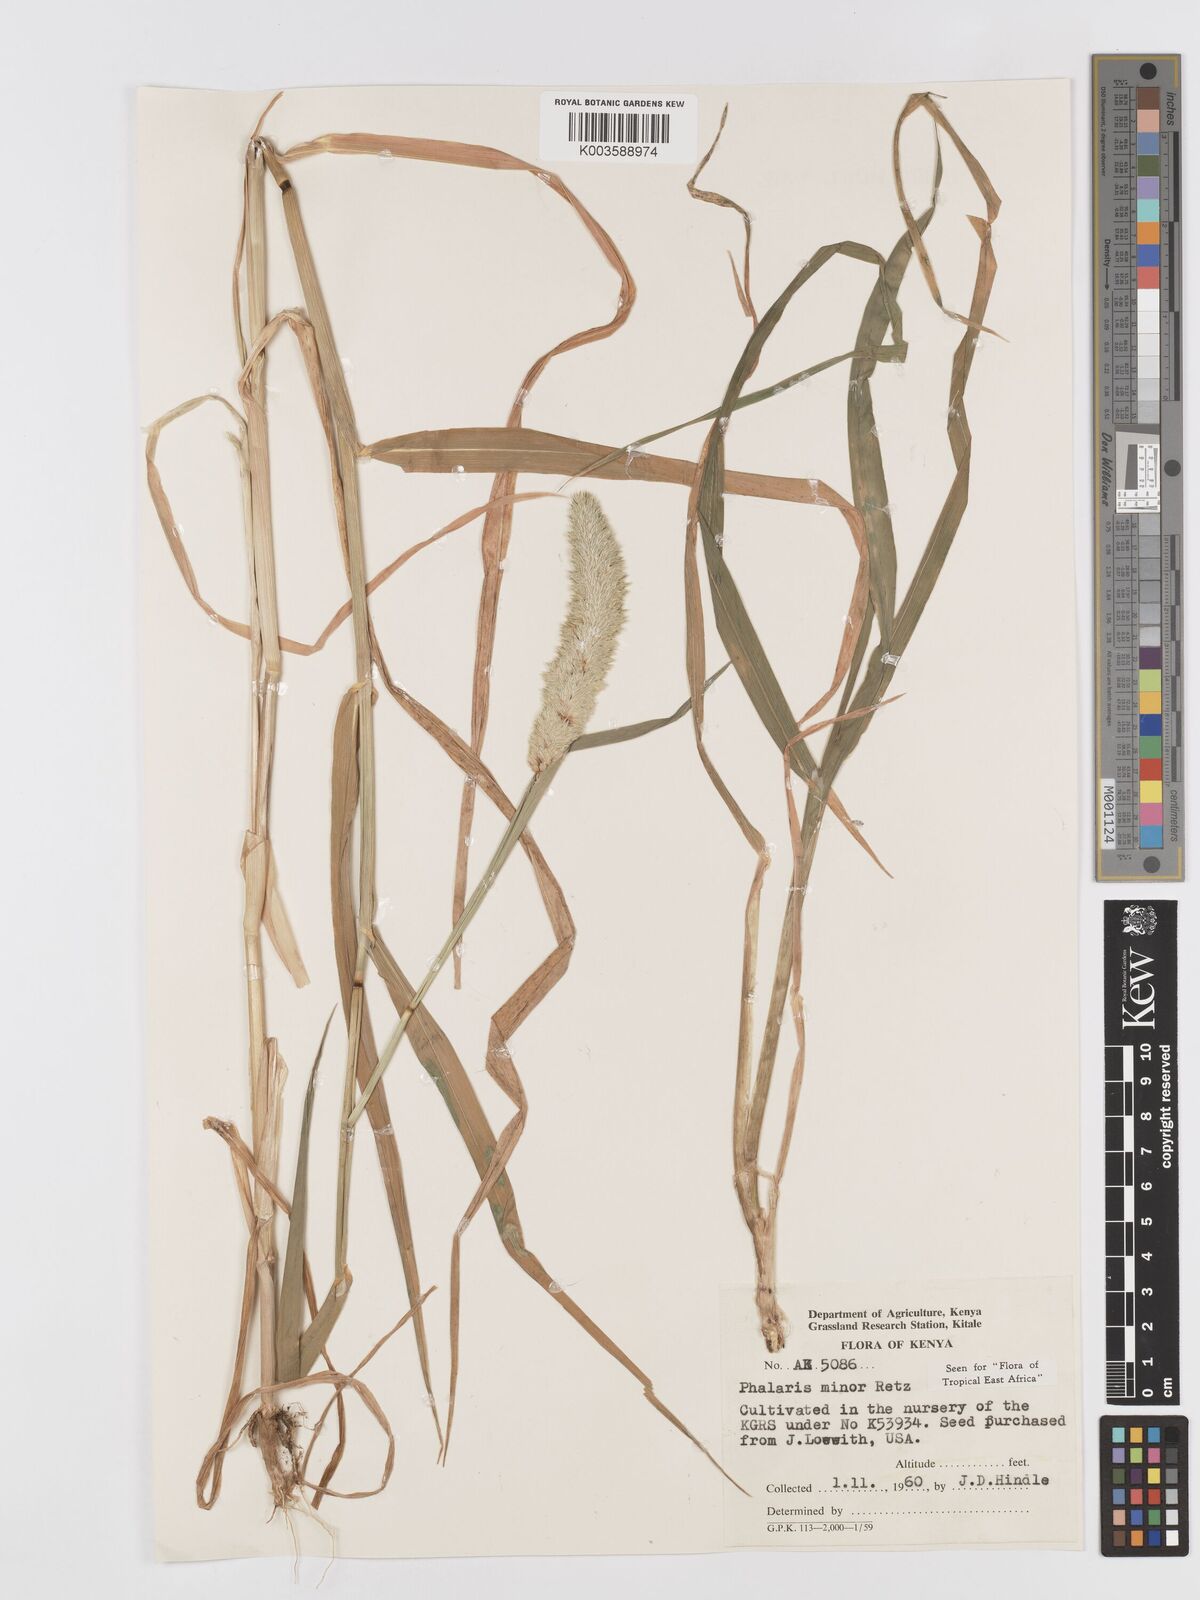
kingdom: Plantae
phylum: Tracheophyta
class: Liliopsida
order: Poales
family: Poaceae
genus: Phalaris
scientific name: Phalaris minor
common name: Littleseed canarygrass
